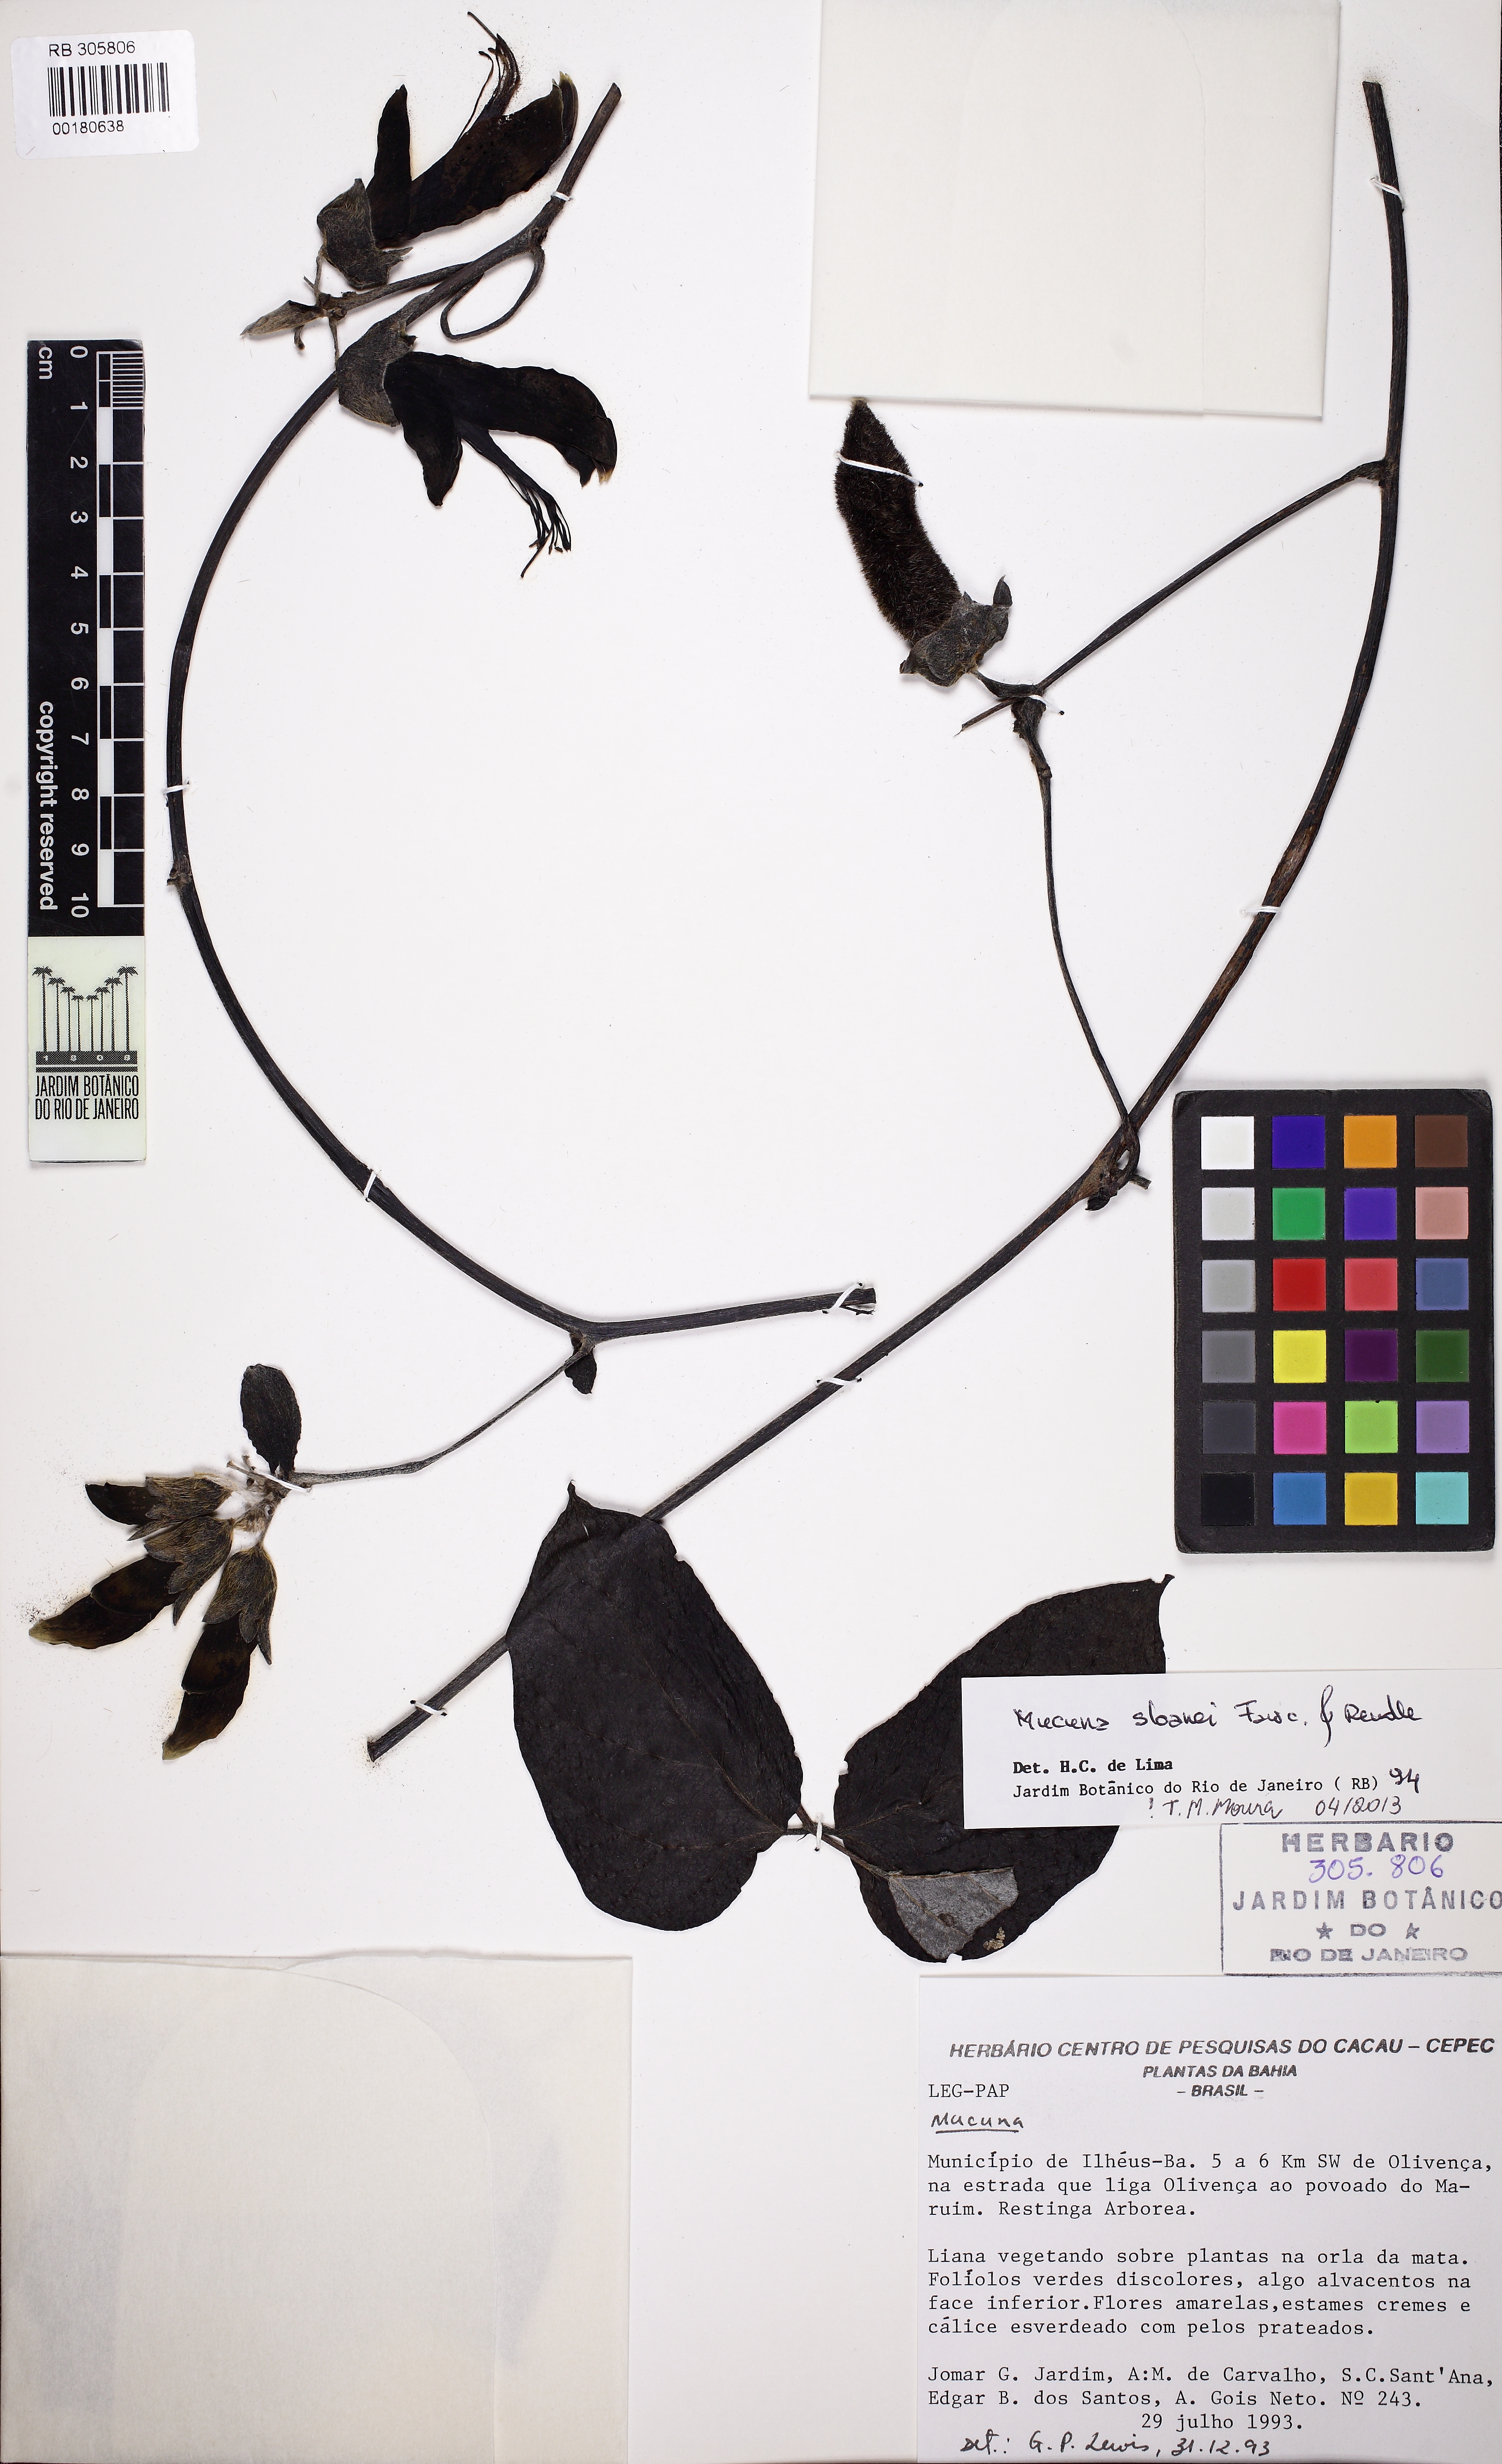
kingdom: Plantae
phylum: Tracheophyta
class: Magnoliopsida
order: Fabales
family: Fabaceae
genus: Mucuna
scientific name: Mucuna sloanei
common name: Horse-eye bean
